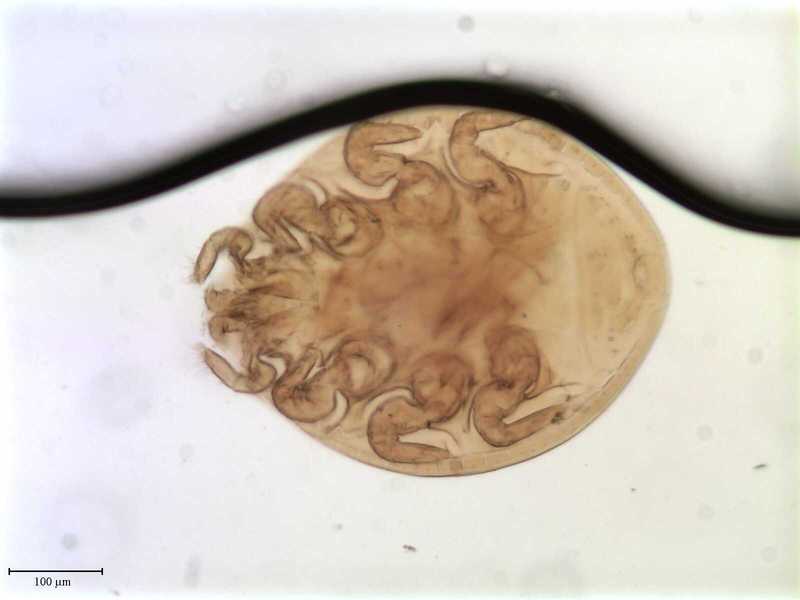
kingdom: Animalia
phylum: Arthropoda
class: Arachnida
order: Mesostigmata
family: Uropodidae
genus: Uropoda
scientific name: Uropoda
